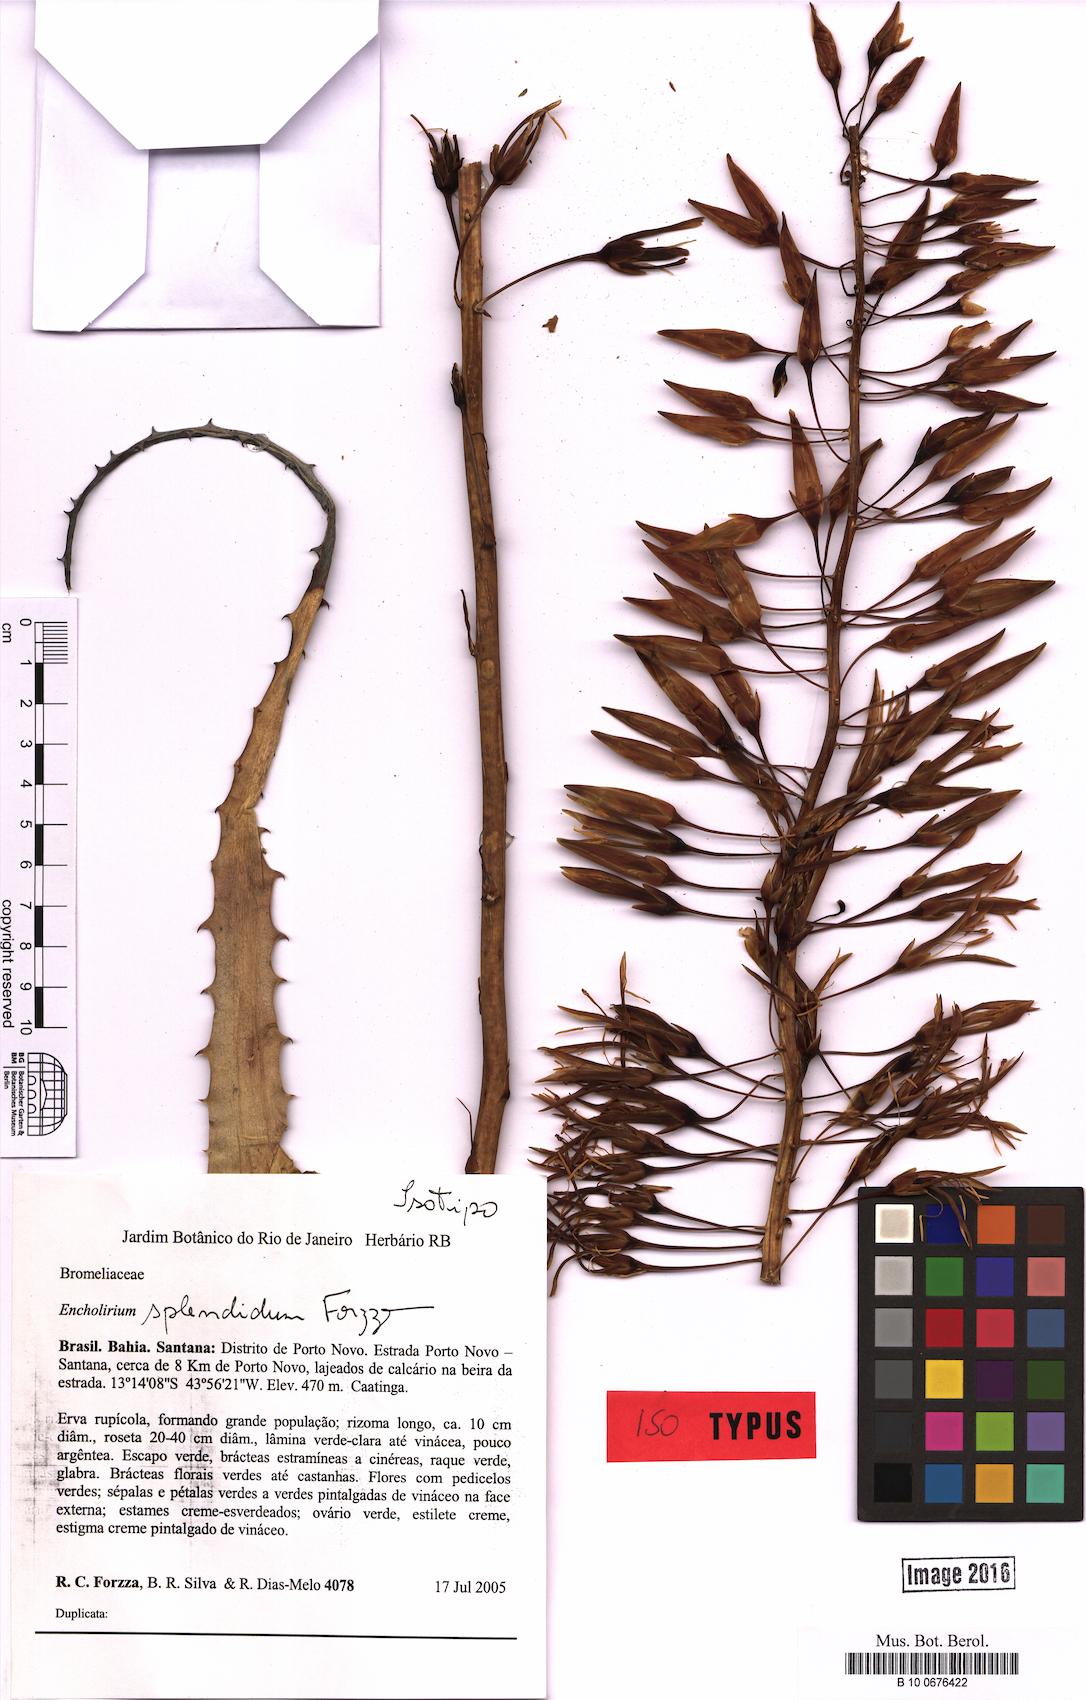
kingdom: Plantae
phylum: Tracheophyta
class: Liliopsida
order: Poales
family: Bromeliaceae
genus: Dyckia
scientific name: Dyckia viridiflora
